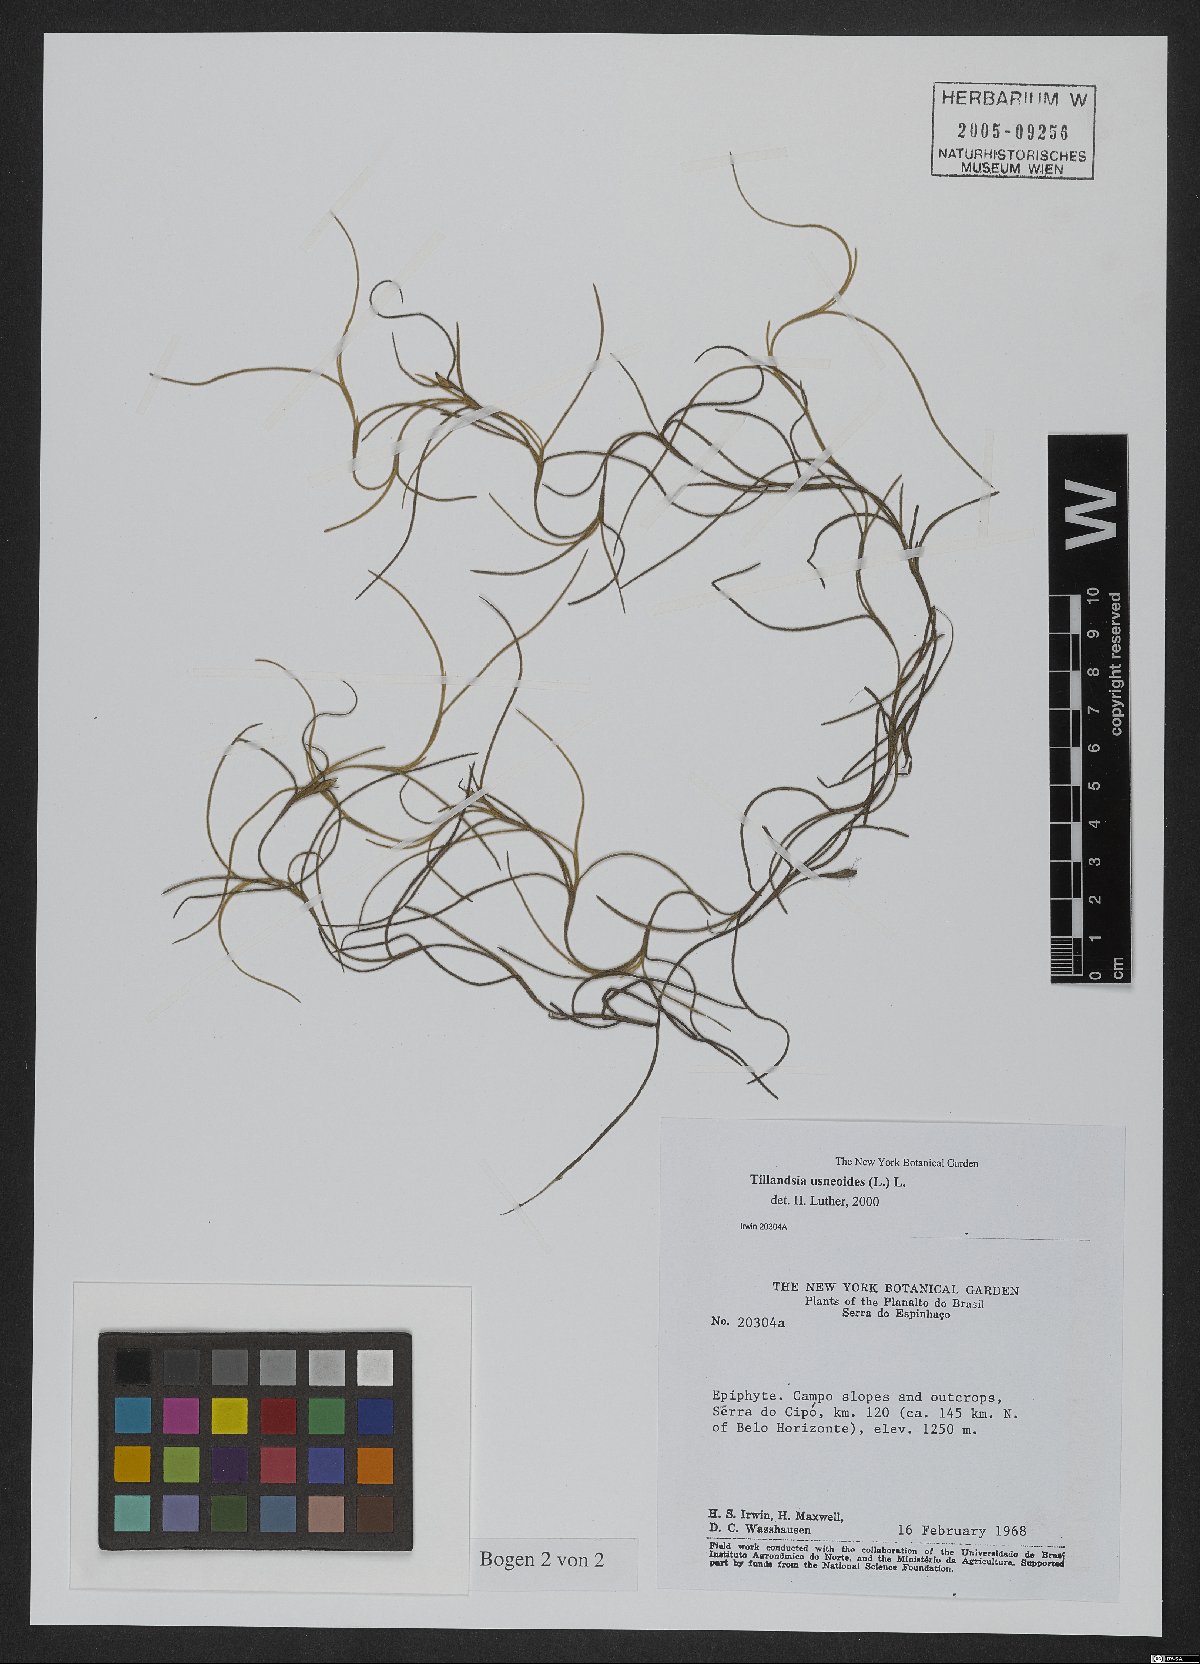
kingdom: Plantae
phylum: Tracheophyta
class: Liliopsida
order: Poales
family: Bromeliaceae
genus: Tillandsia
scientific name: Tillandsia usneoides
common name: Spanish moss
